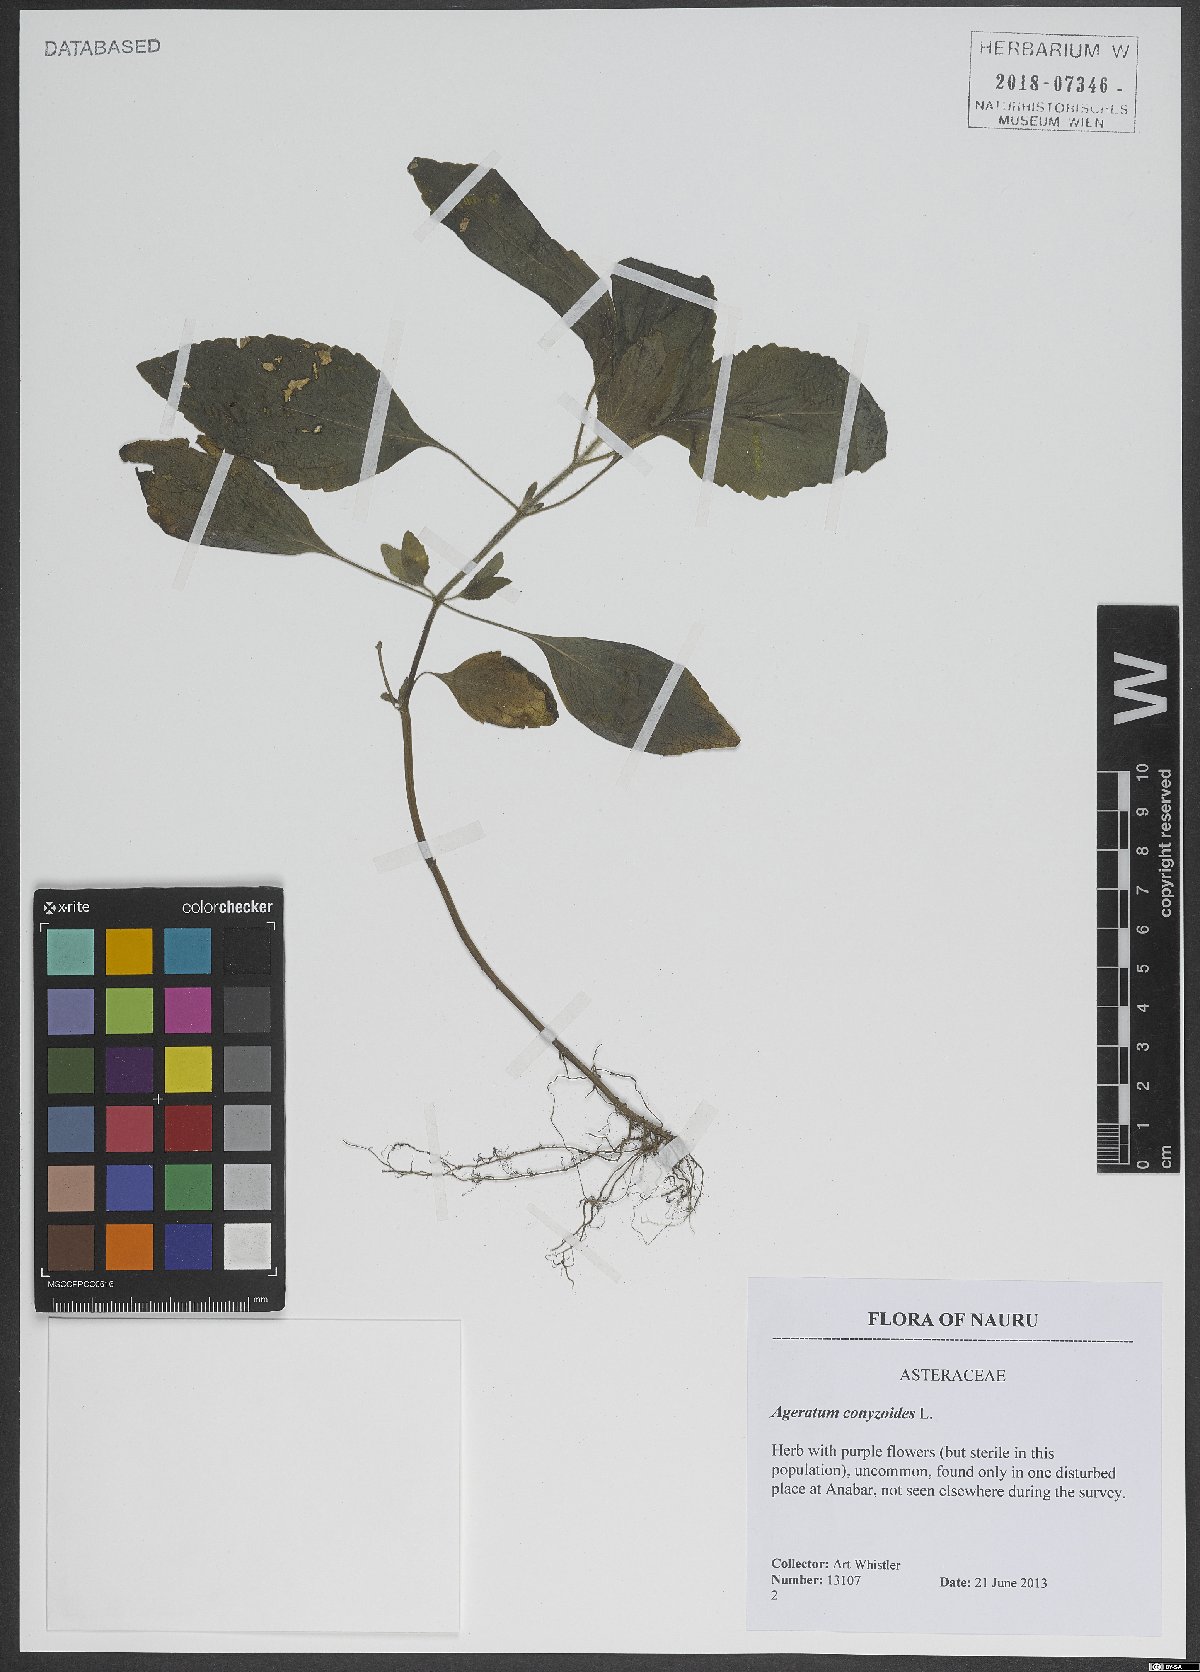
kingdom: Plantae
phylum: Tracheophyta
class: Magnoliopsida
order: Asterales
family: Asteraceae
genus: Ageratum
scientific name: Ageratum conyzoides
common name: Tropical whiteweed
